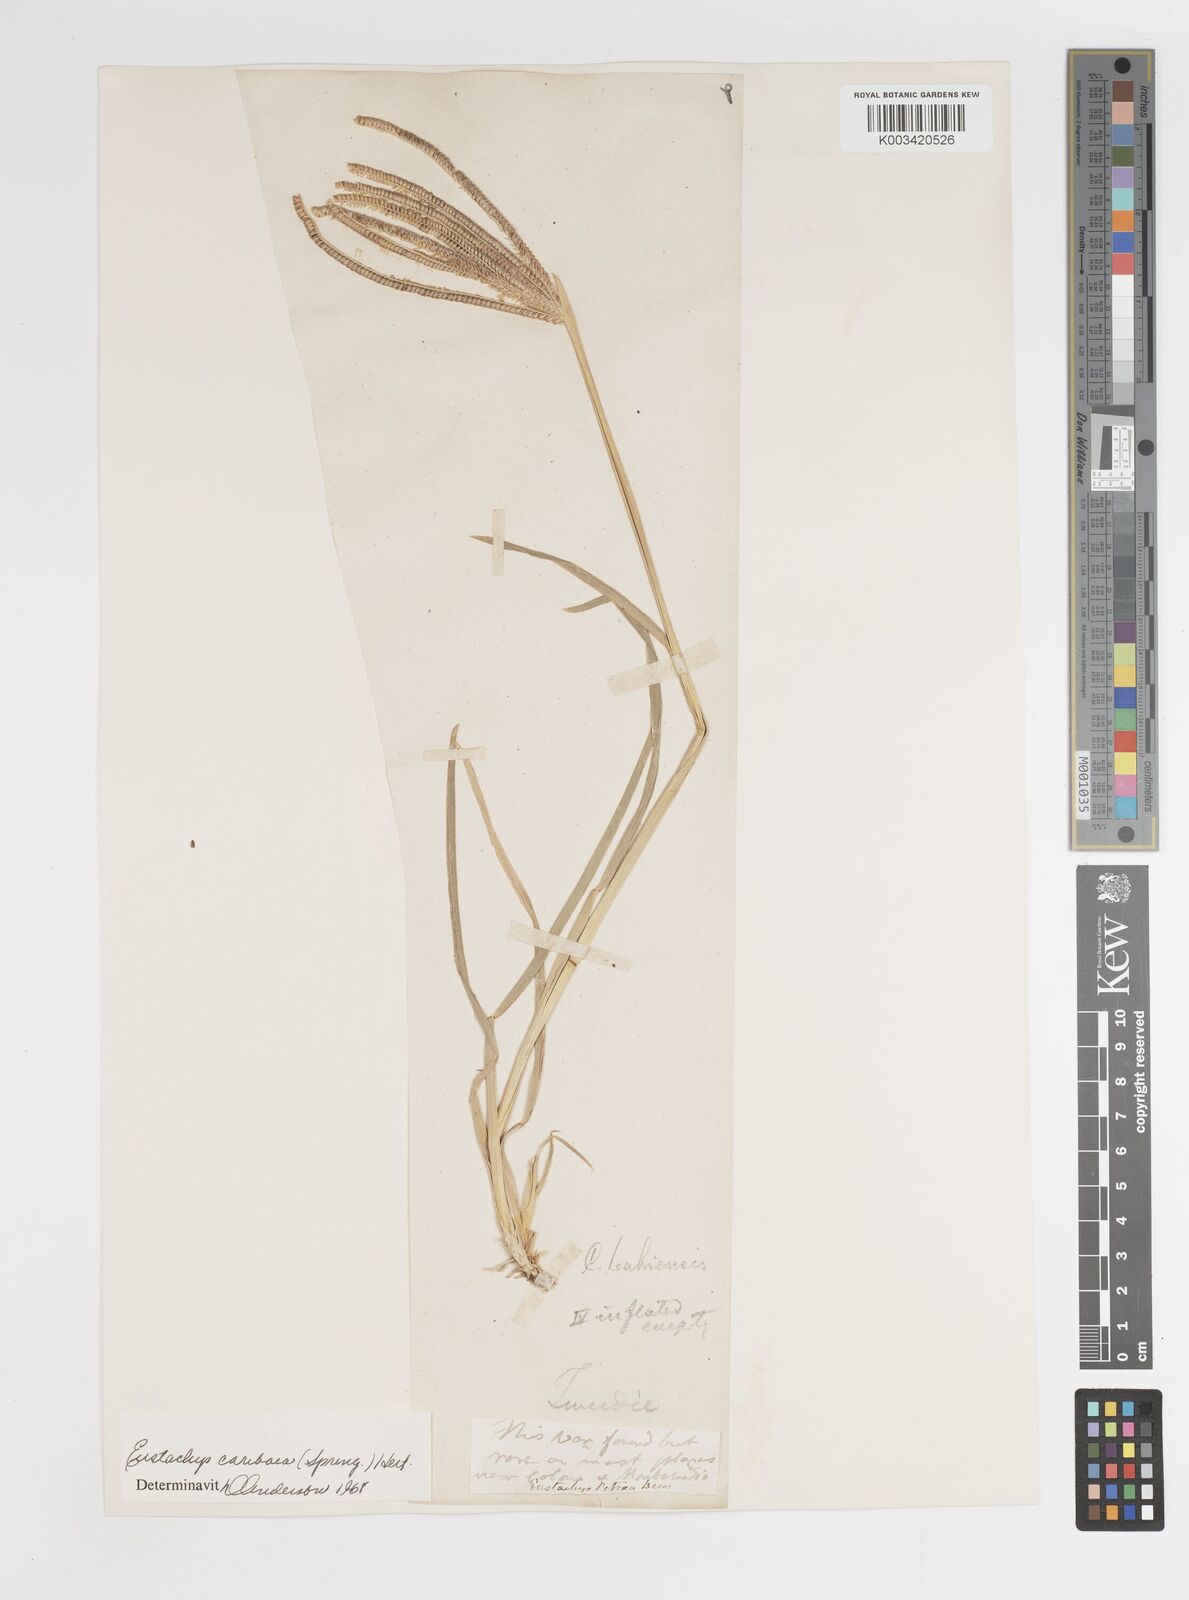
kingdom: Plantae
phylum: Tracheophyta
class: Liliopsida
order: Poales
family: Poaceae
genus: Eustachys
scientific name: Eustachys bahiensis
